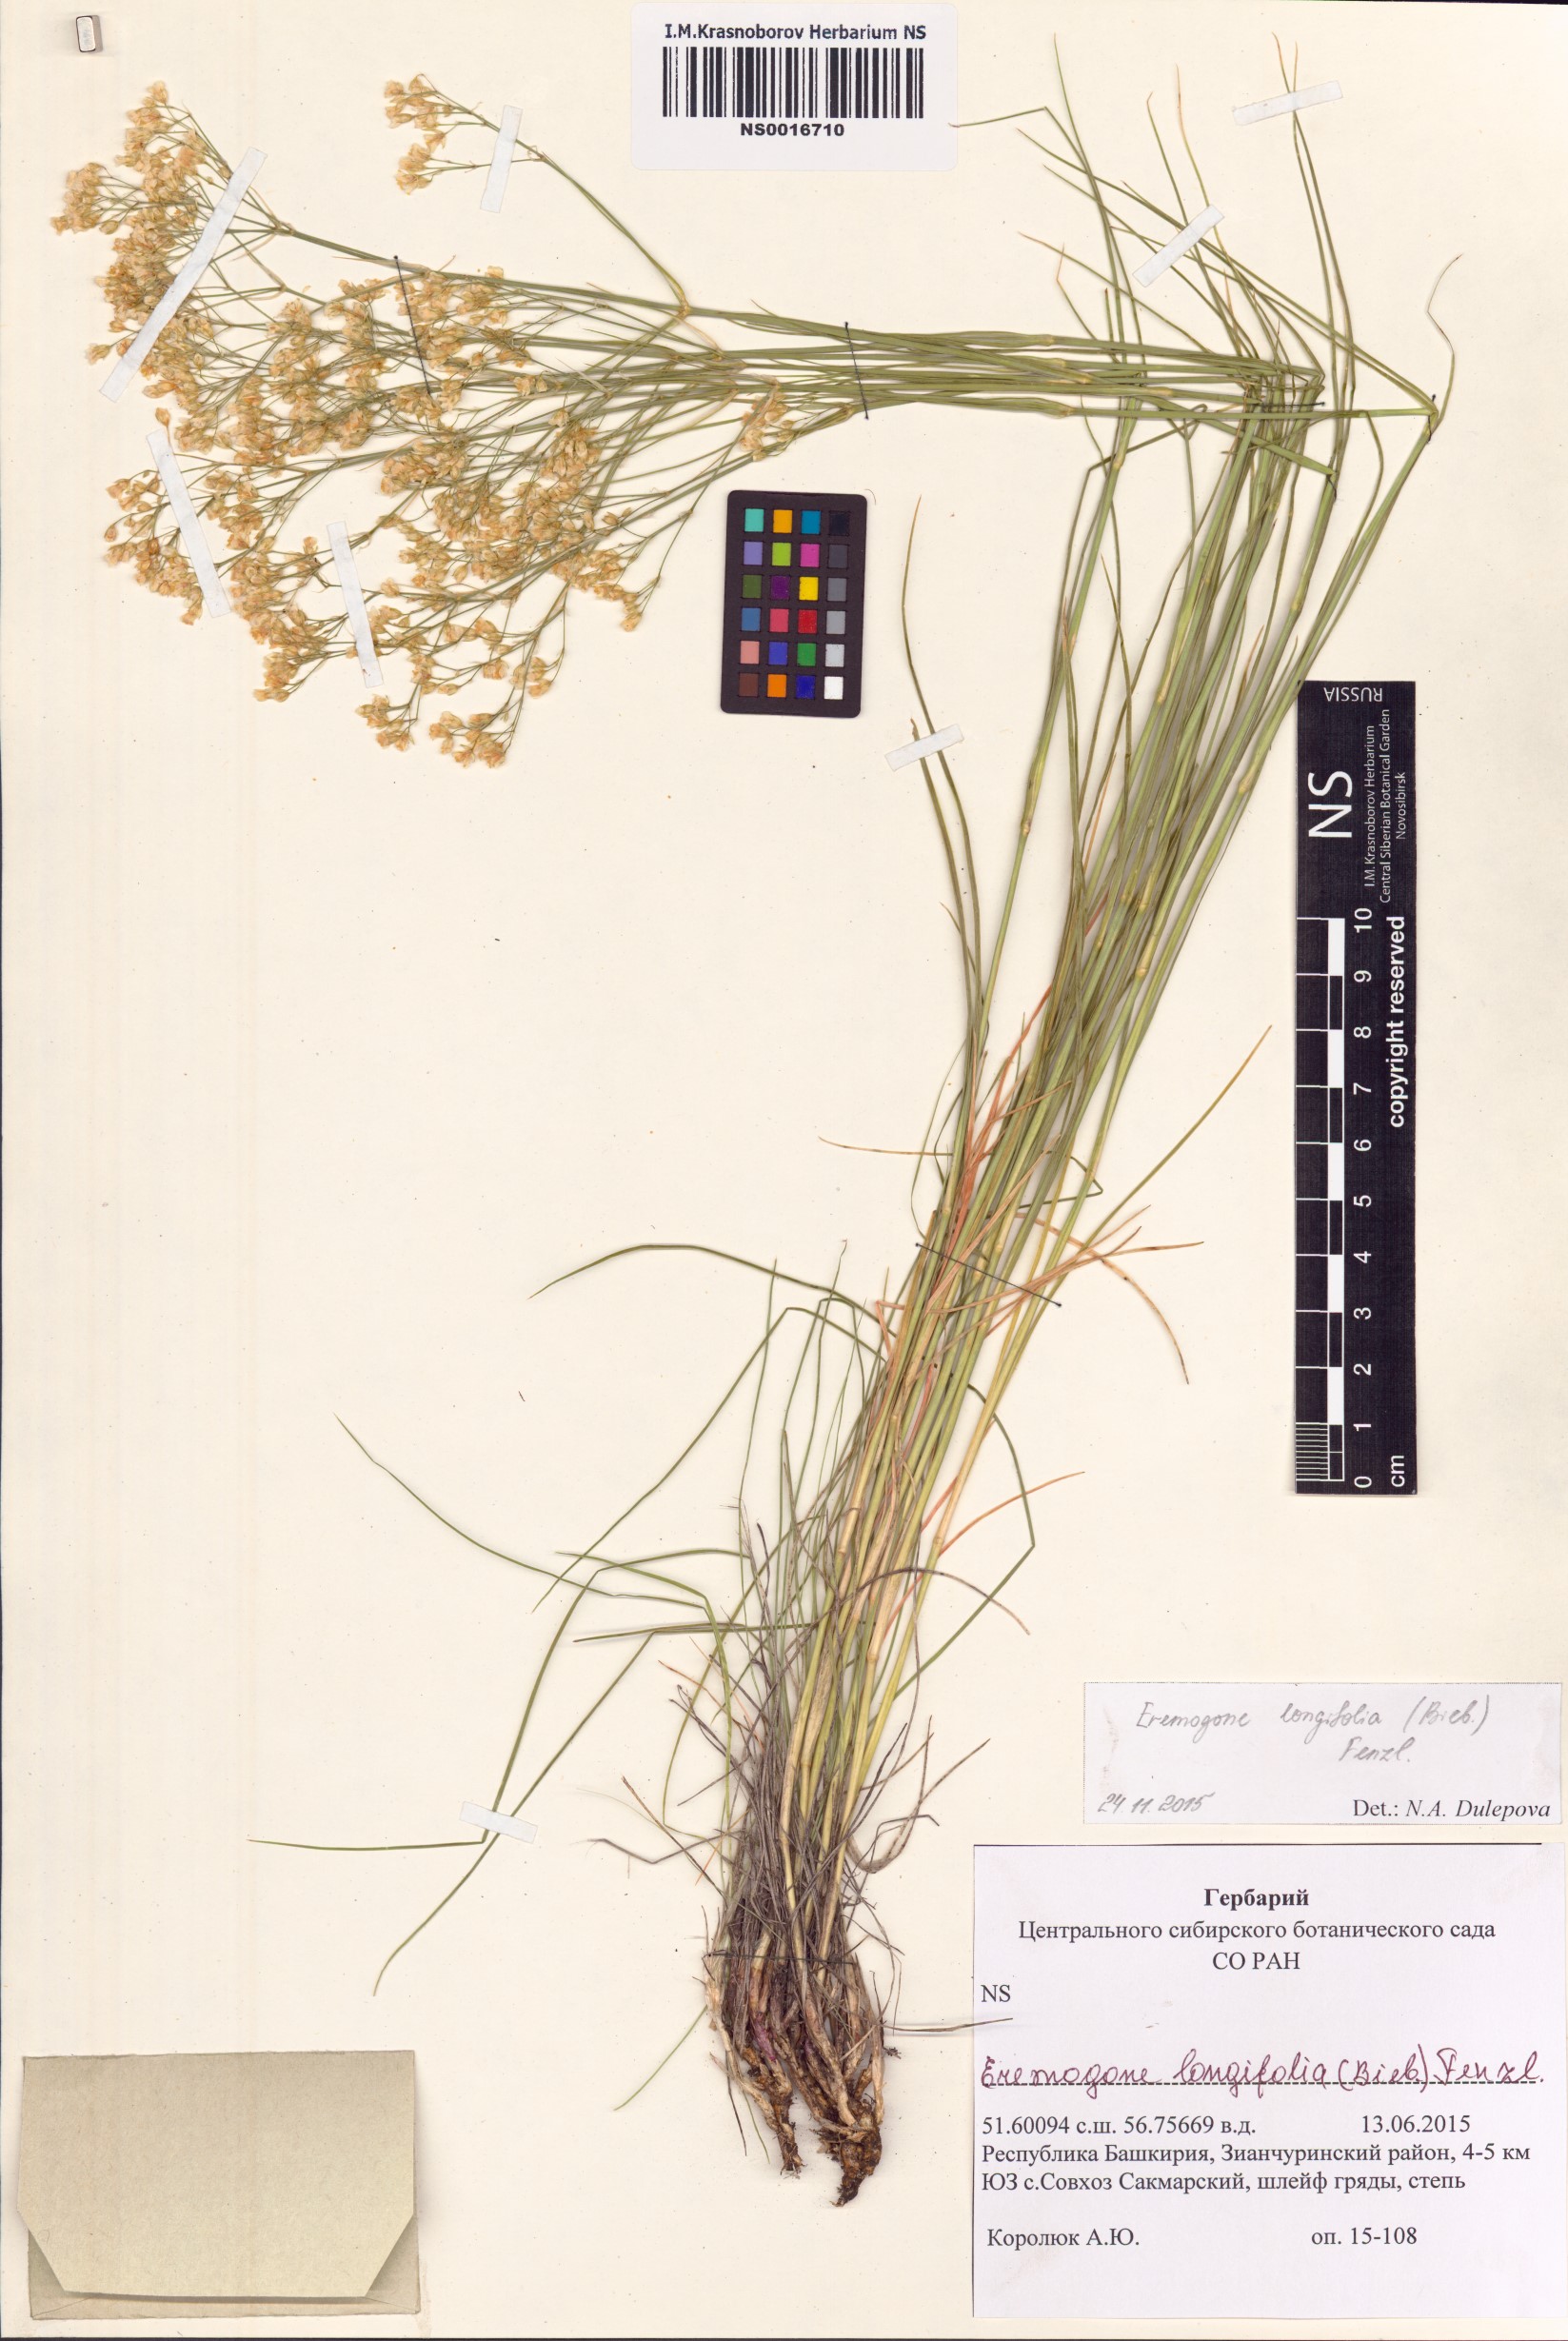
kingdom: Plantae
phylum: Tracheophyta
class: Magnoliopsida
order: Caryophyllales
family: Caryophyllaceae
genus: Eremogone
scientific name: Eremogone longifolia
